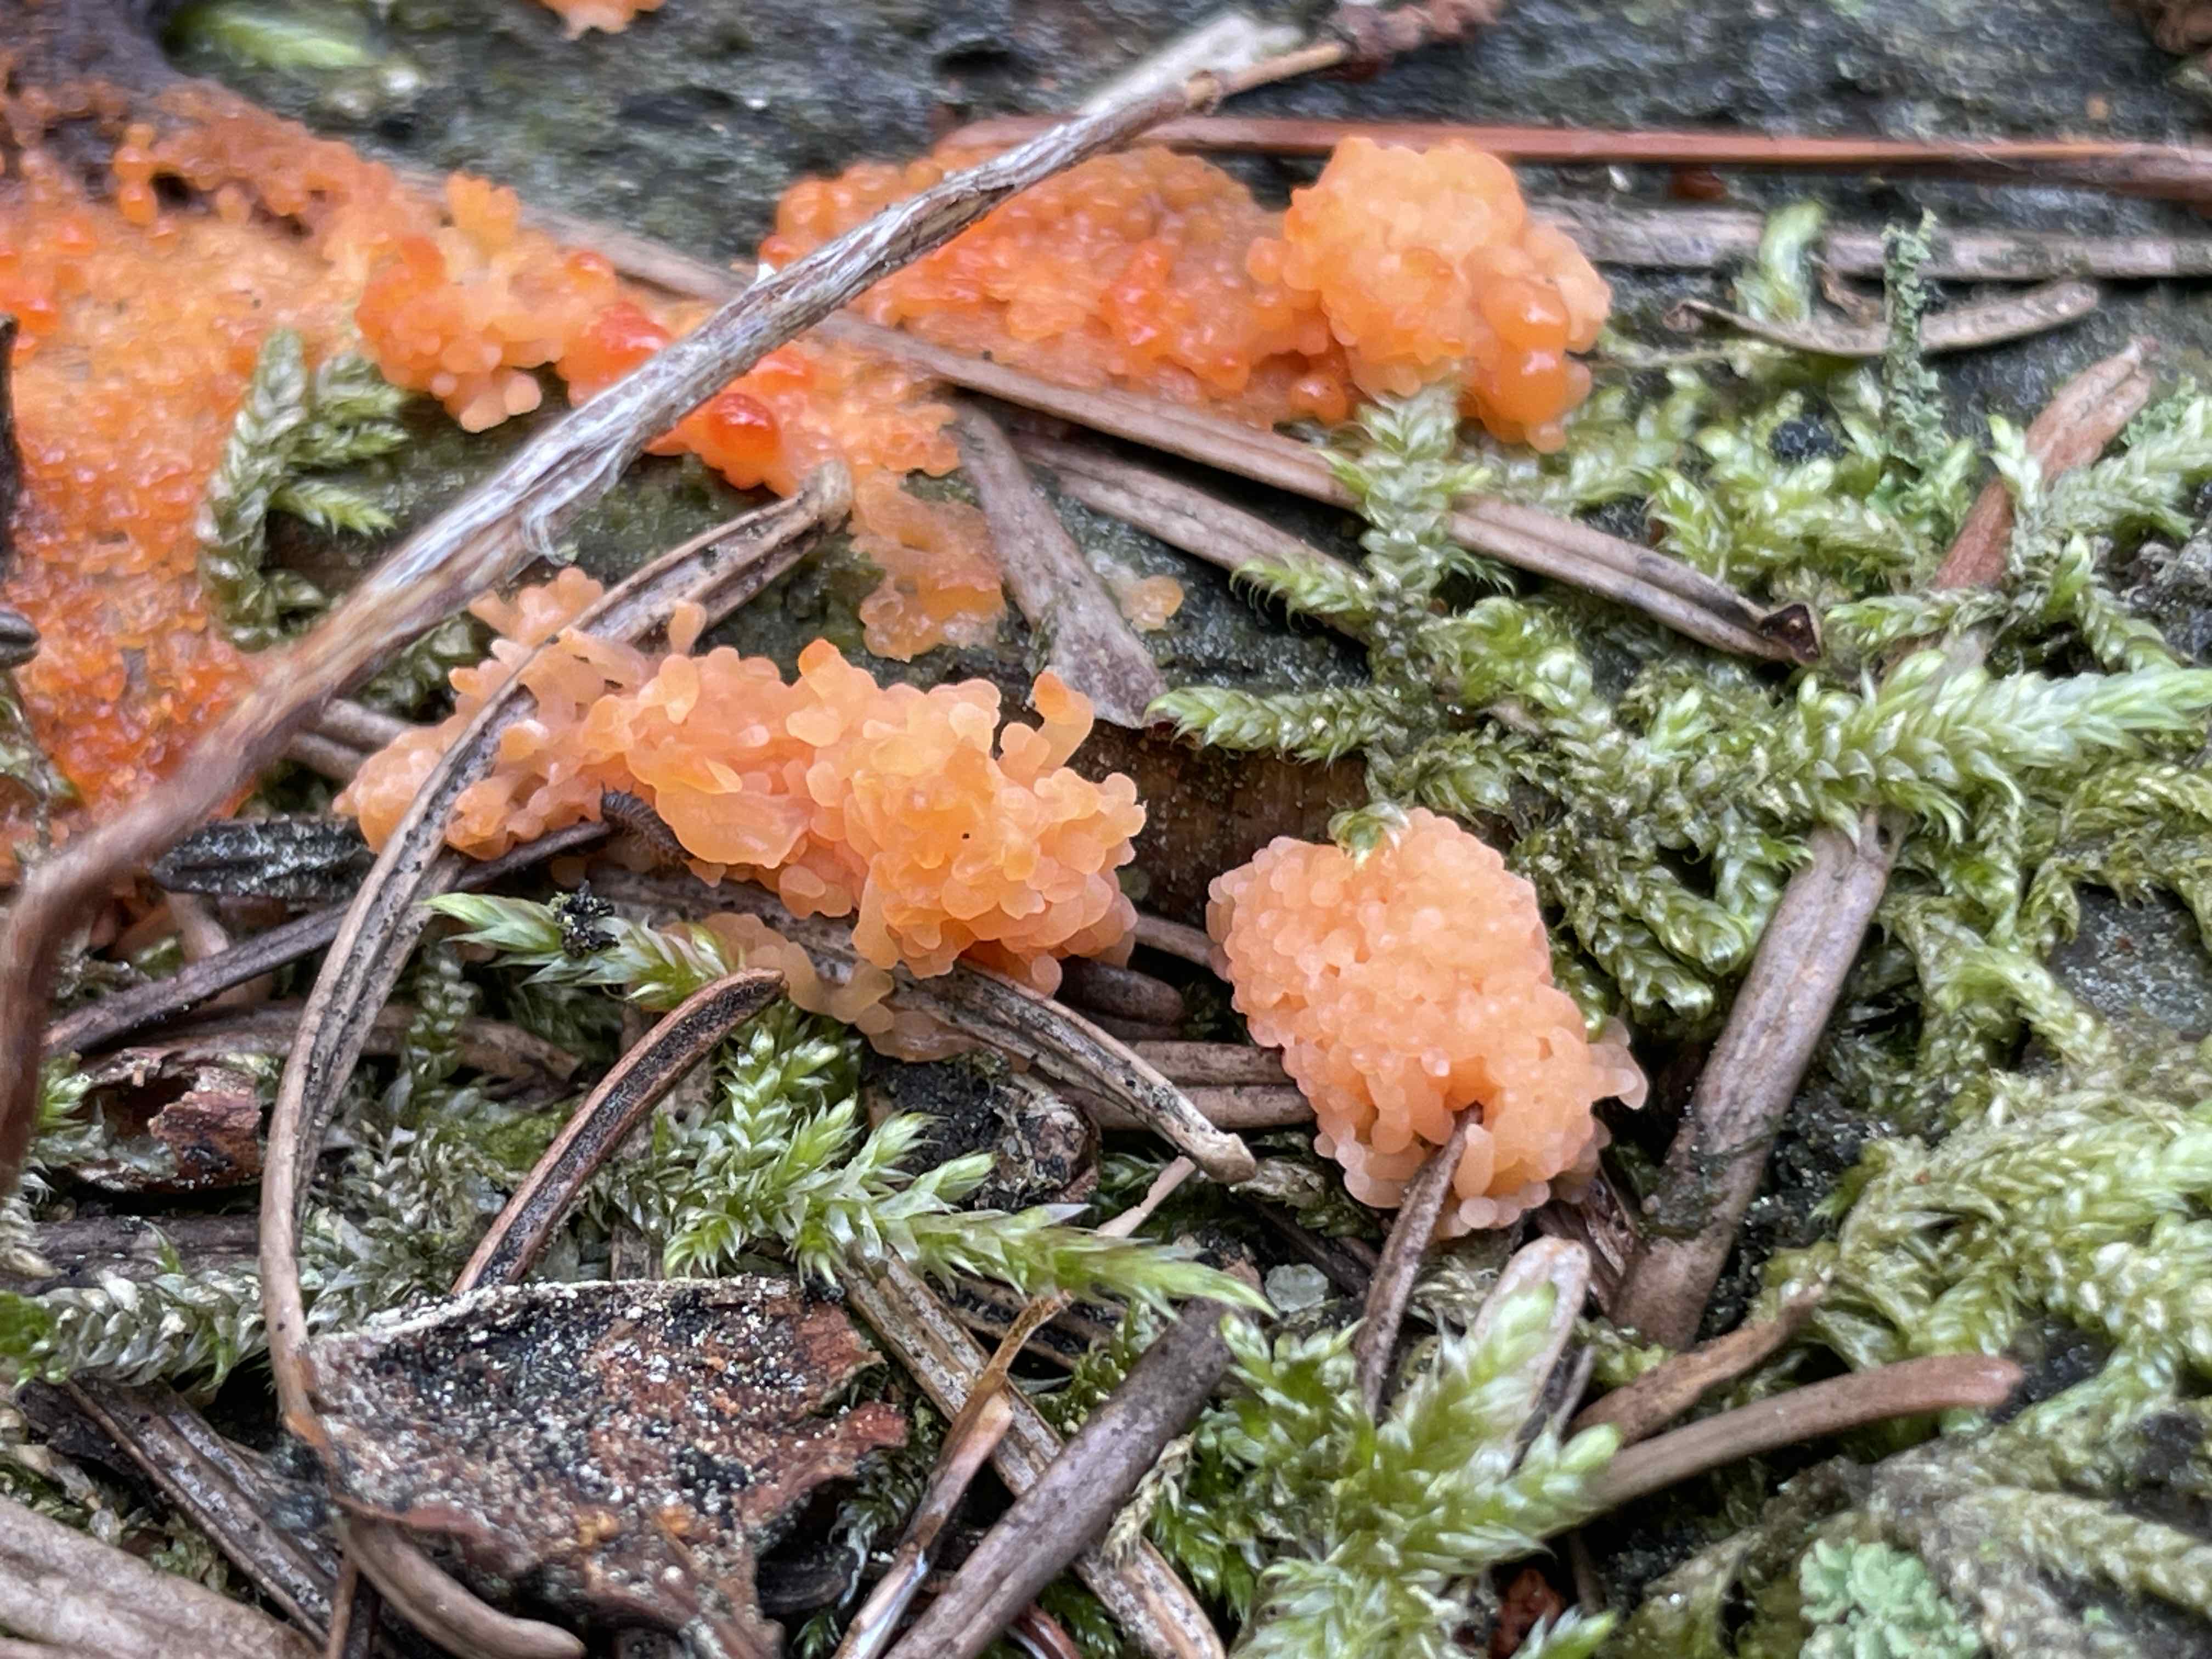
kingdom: Protozoa
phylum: Mycetozoa
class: Myxomycetes
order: Cribrariales
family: Tubiferaceae
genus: Tubifera
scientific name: Tubifera ferruginosa
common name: kanel-støvrør
